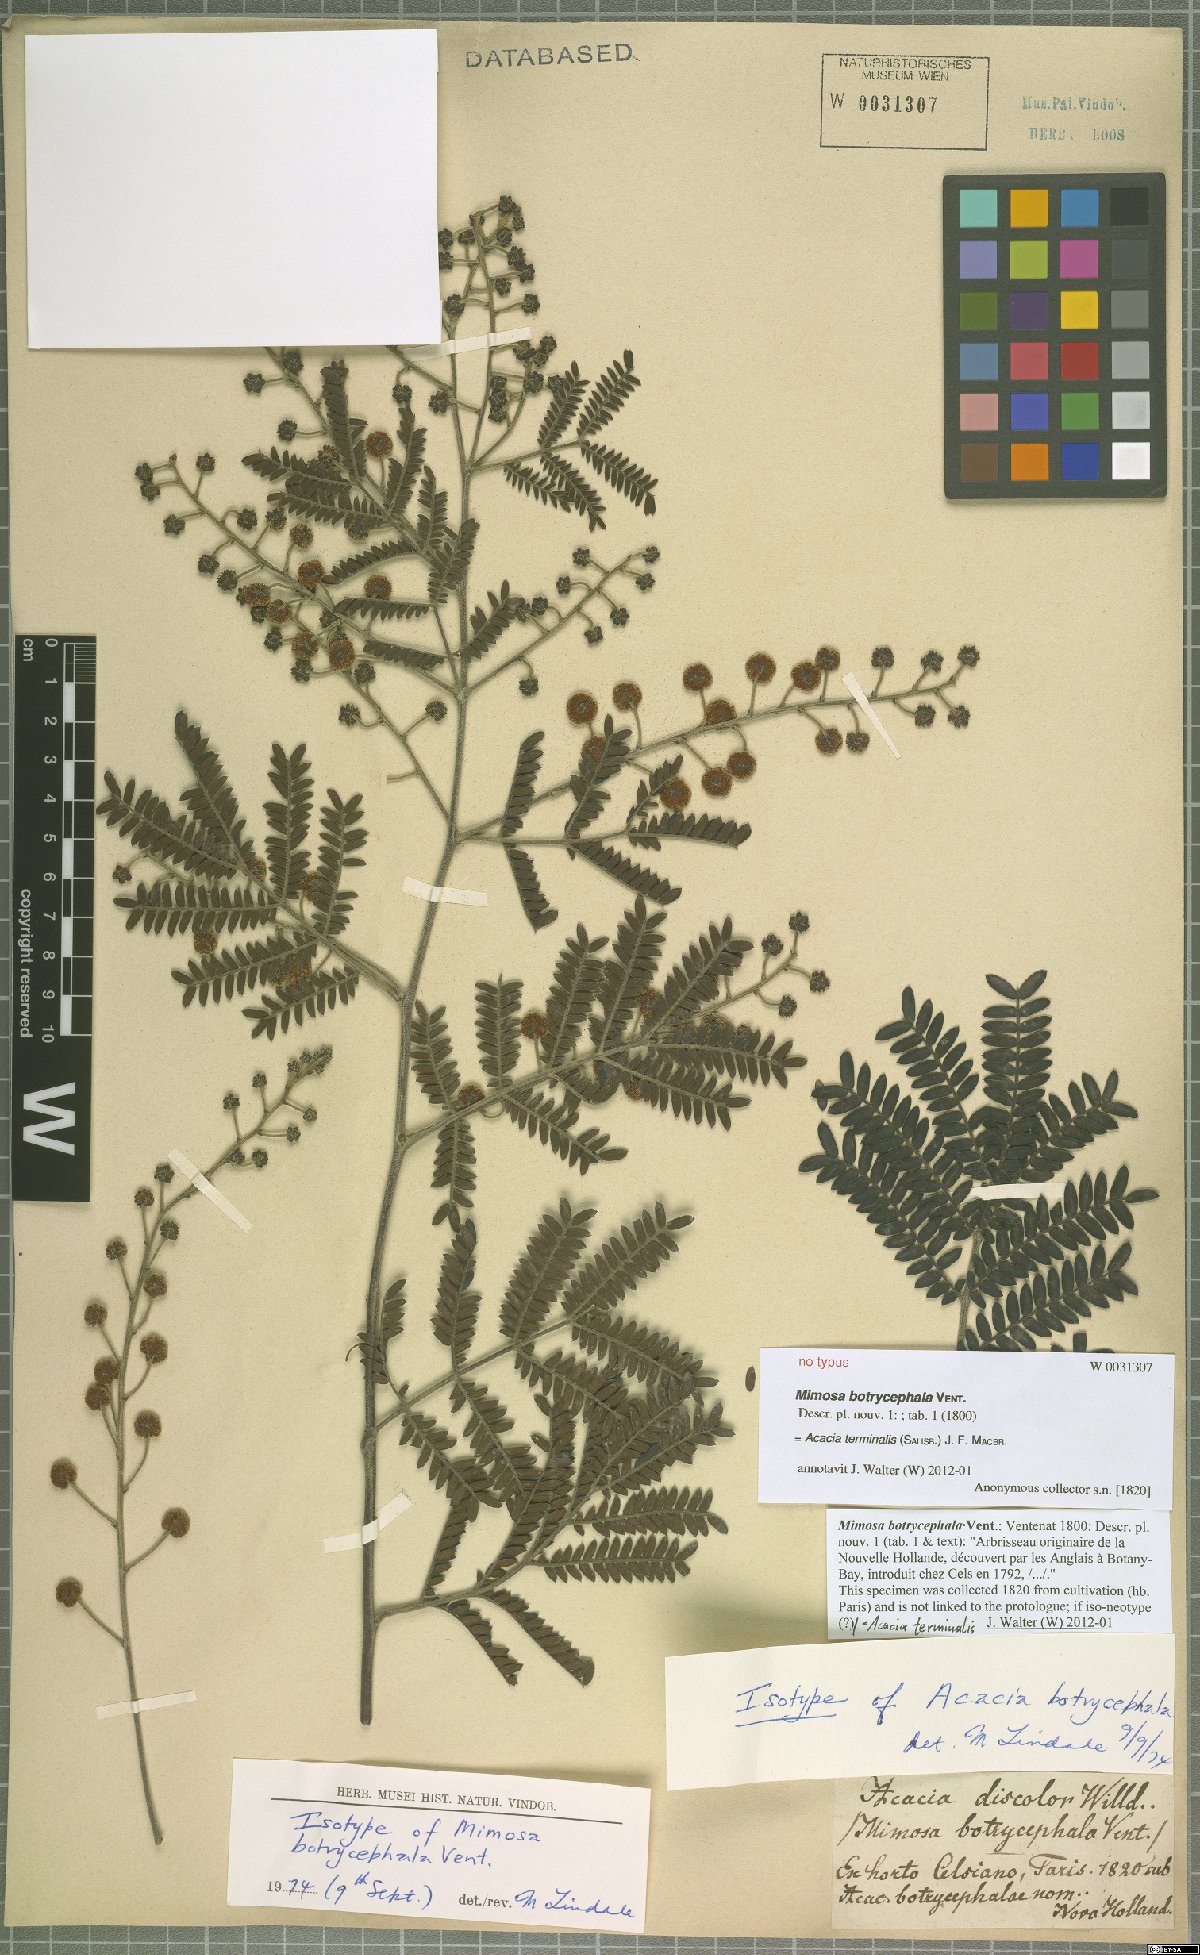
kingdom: Plantae
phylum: Tracheophyta
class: Magnoliopsida
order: Fabales
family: Fabaceae
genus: Acacia
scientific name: Acacia terminalis
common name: Cedar wattle
